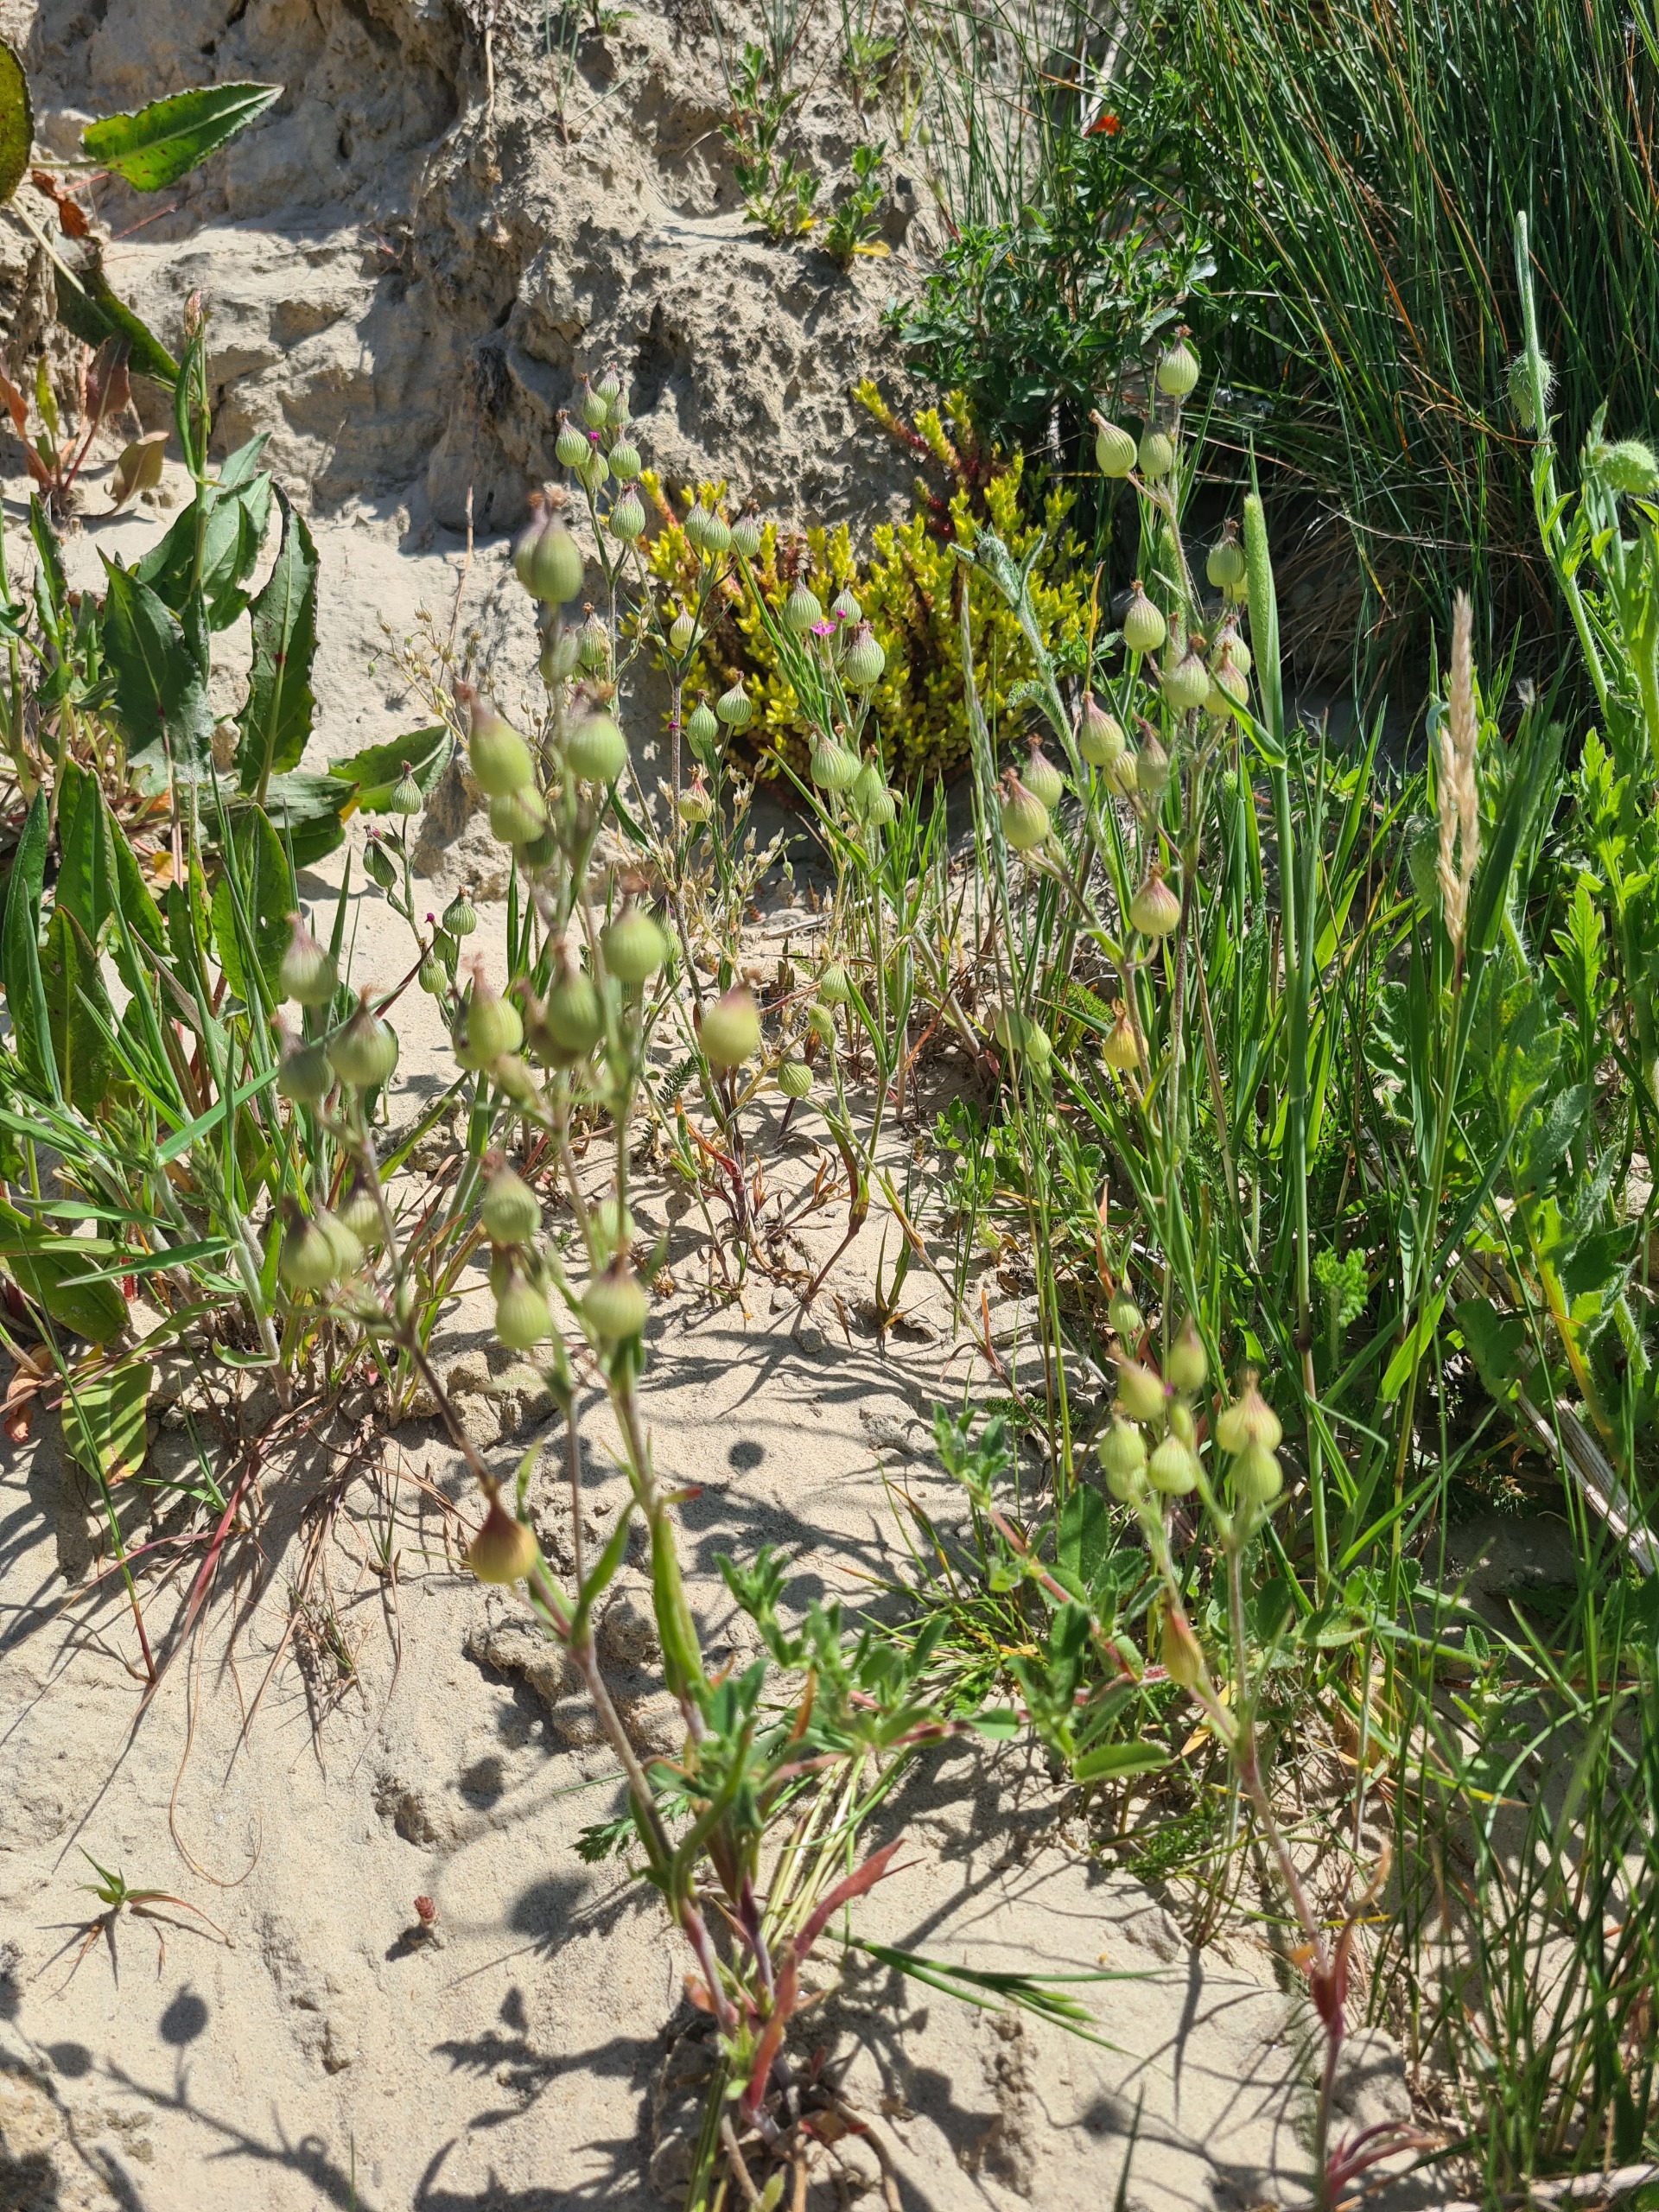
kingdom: Plantae
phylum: Tracheophyta
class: Magnoliopsida
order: Caryophyllales
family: Caryophyllaceae
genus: Silene
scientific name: Silene conica
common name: Kegle-limurt
